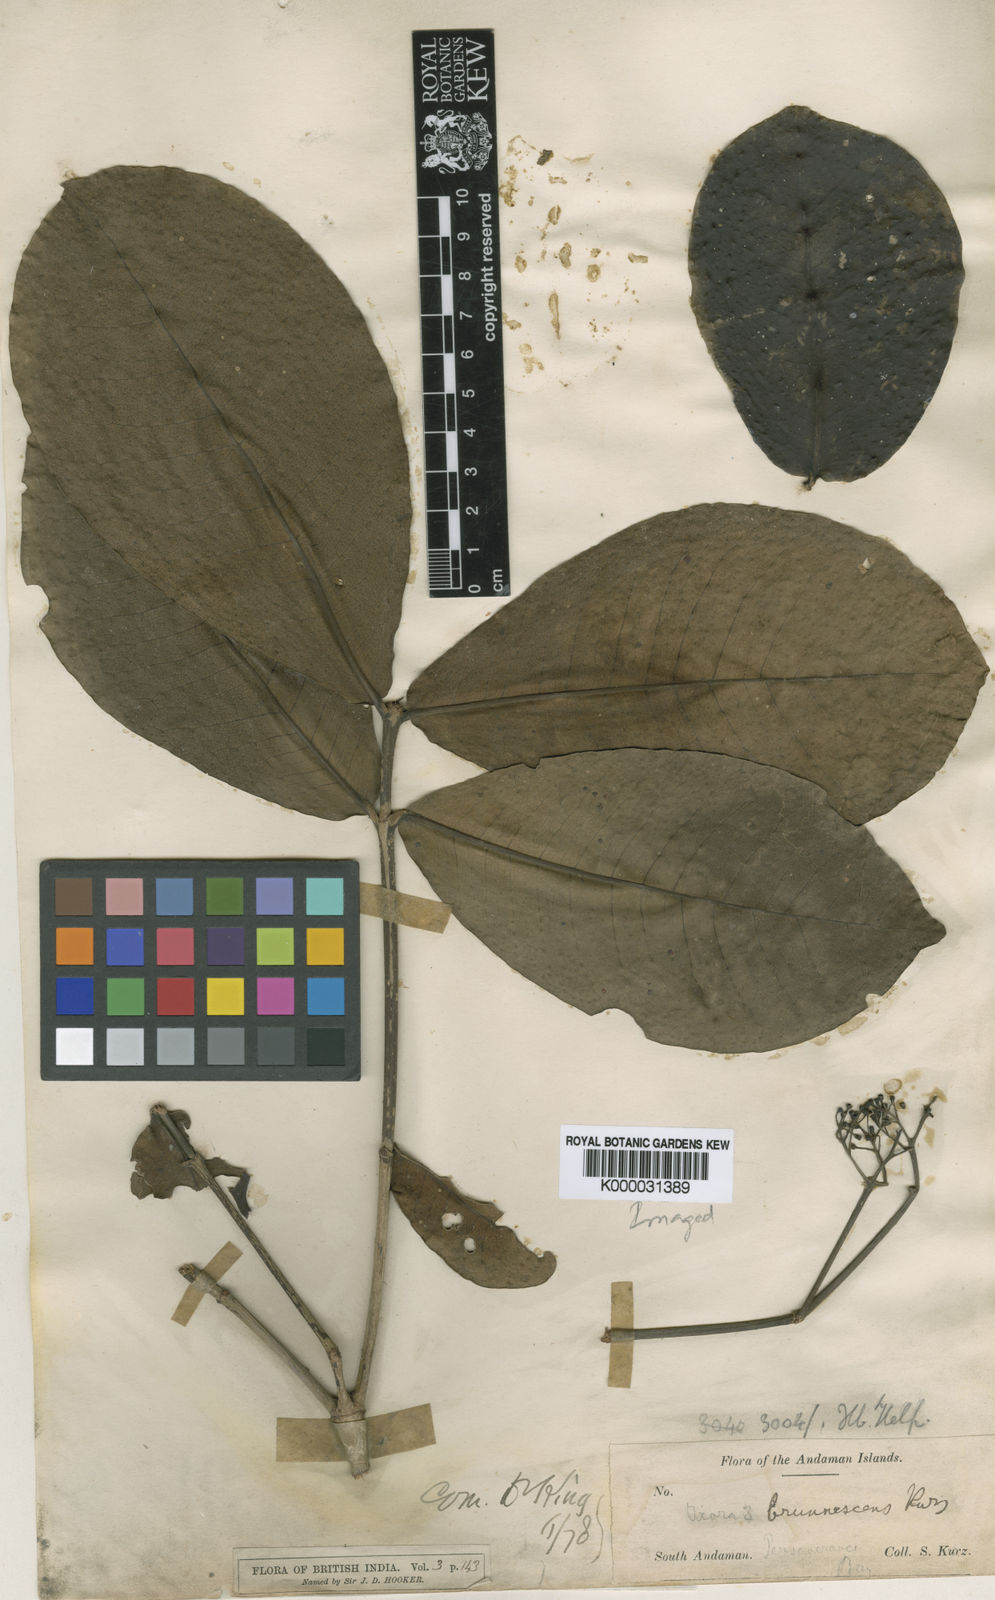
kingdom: Plantae
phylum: Tracheophyta
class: Magnoliopsida
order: Gentianales
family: Rubiaceae
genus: Ixora
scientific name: Ixora brunnescens
